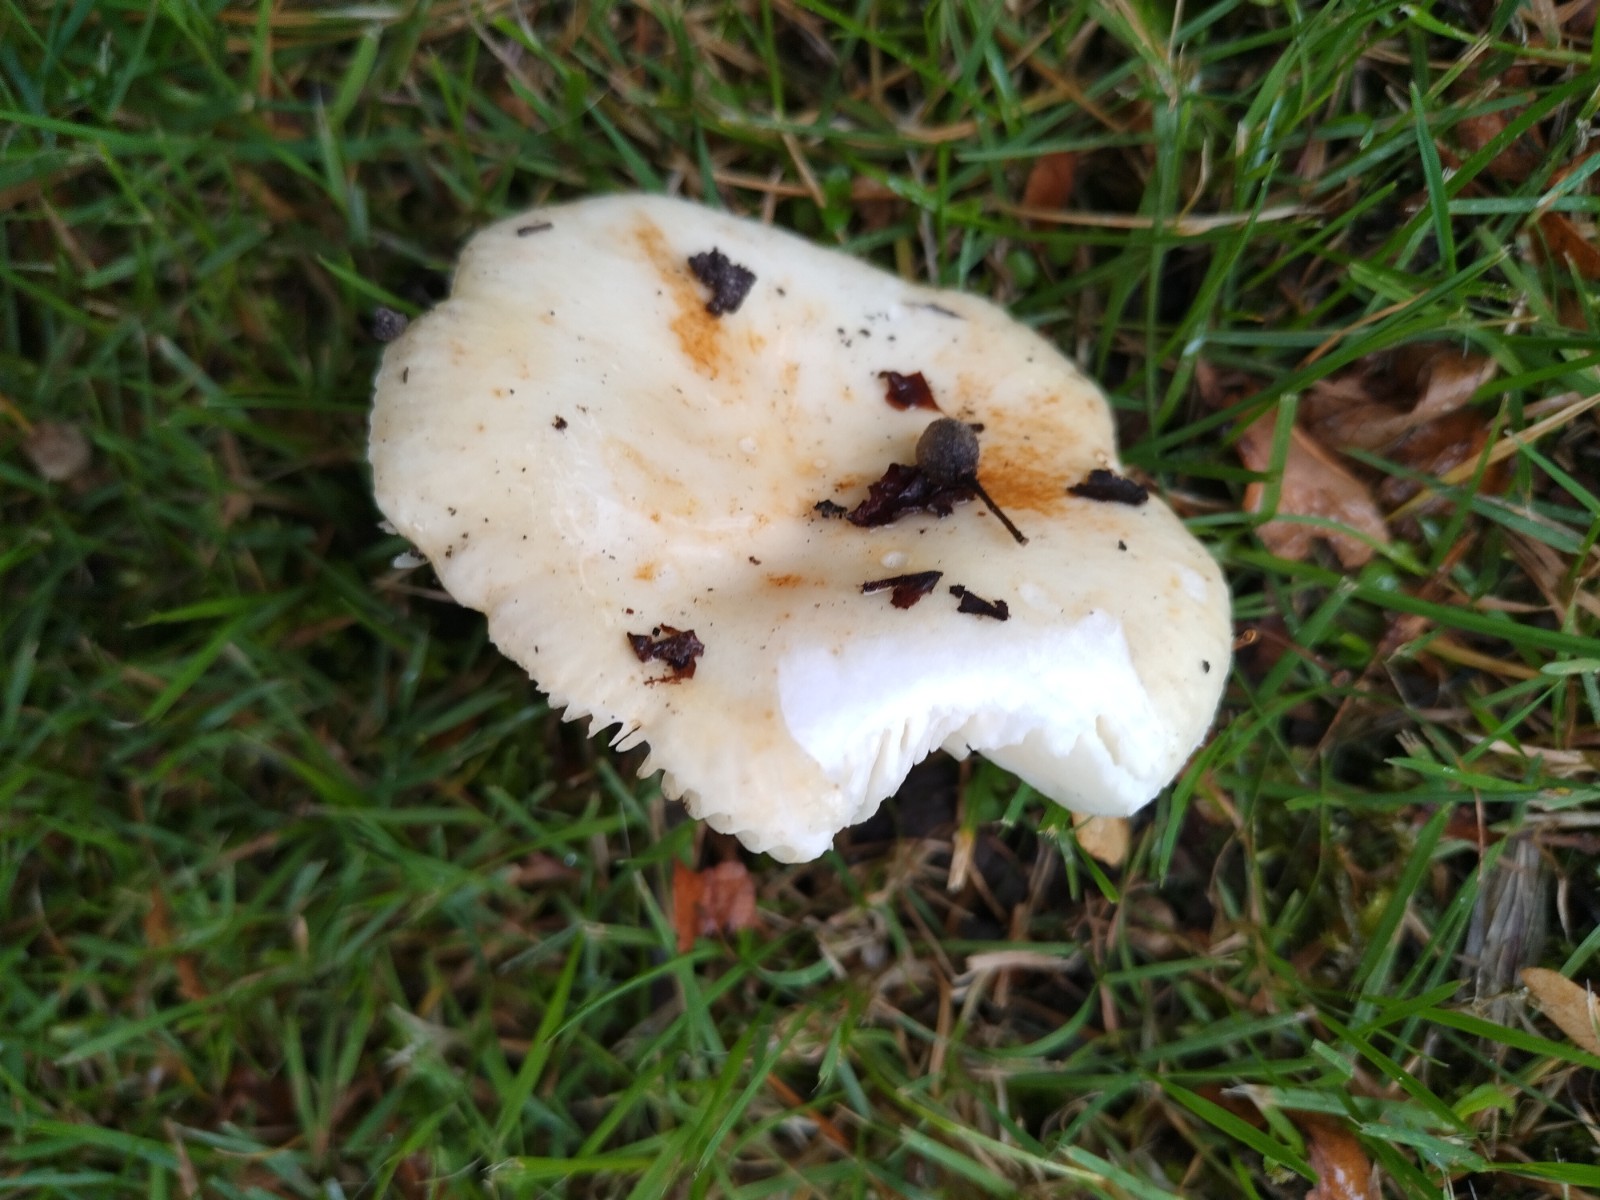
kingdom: Fungi
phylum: Basidiomycota
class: Agaricomycetes
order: Russulales
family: Russulaceae
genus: Russula
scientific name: Russula fellea
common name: galde-skørhat
